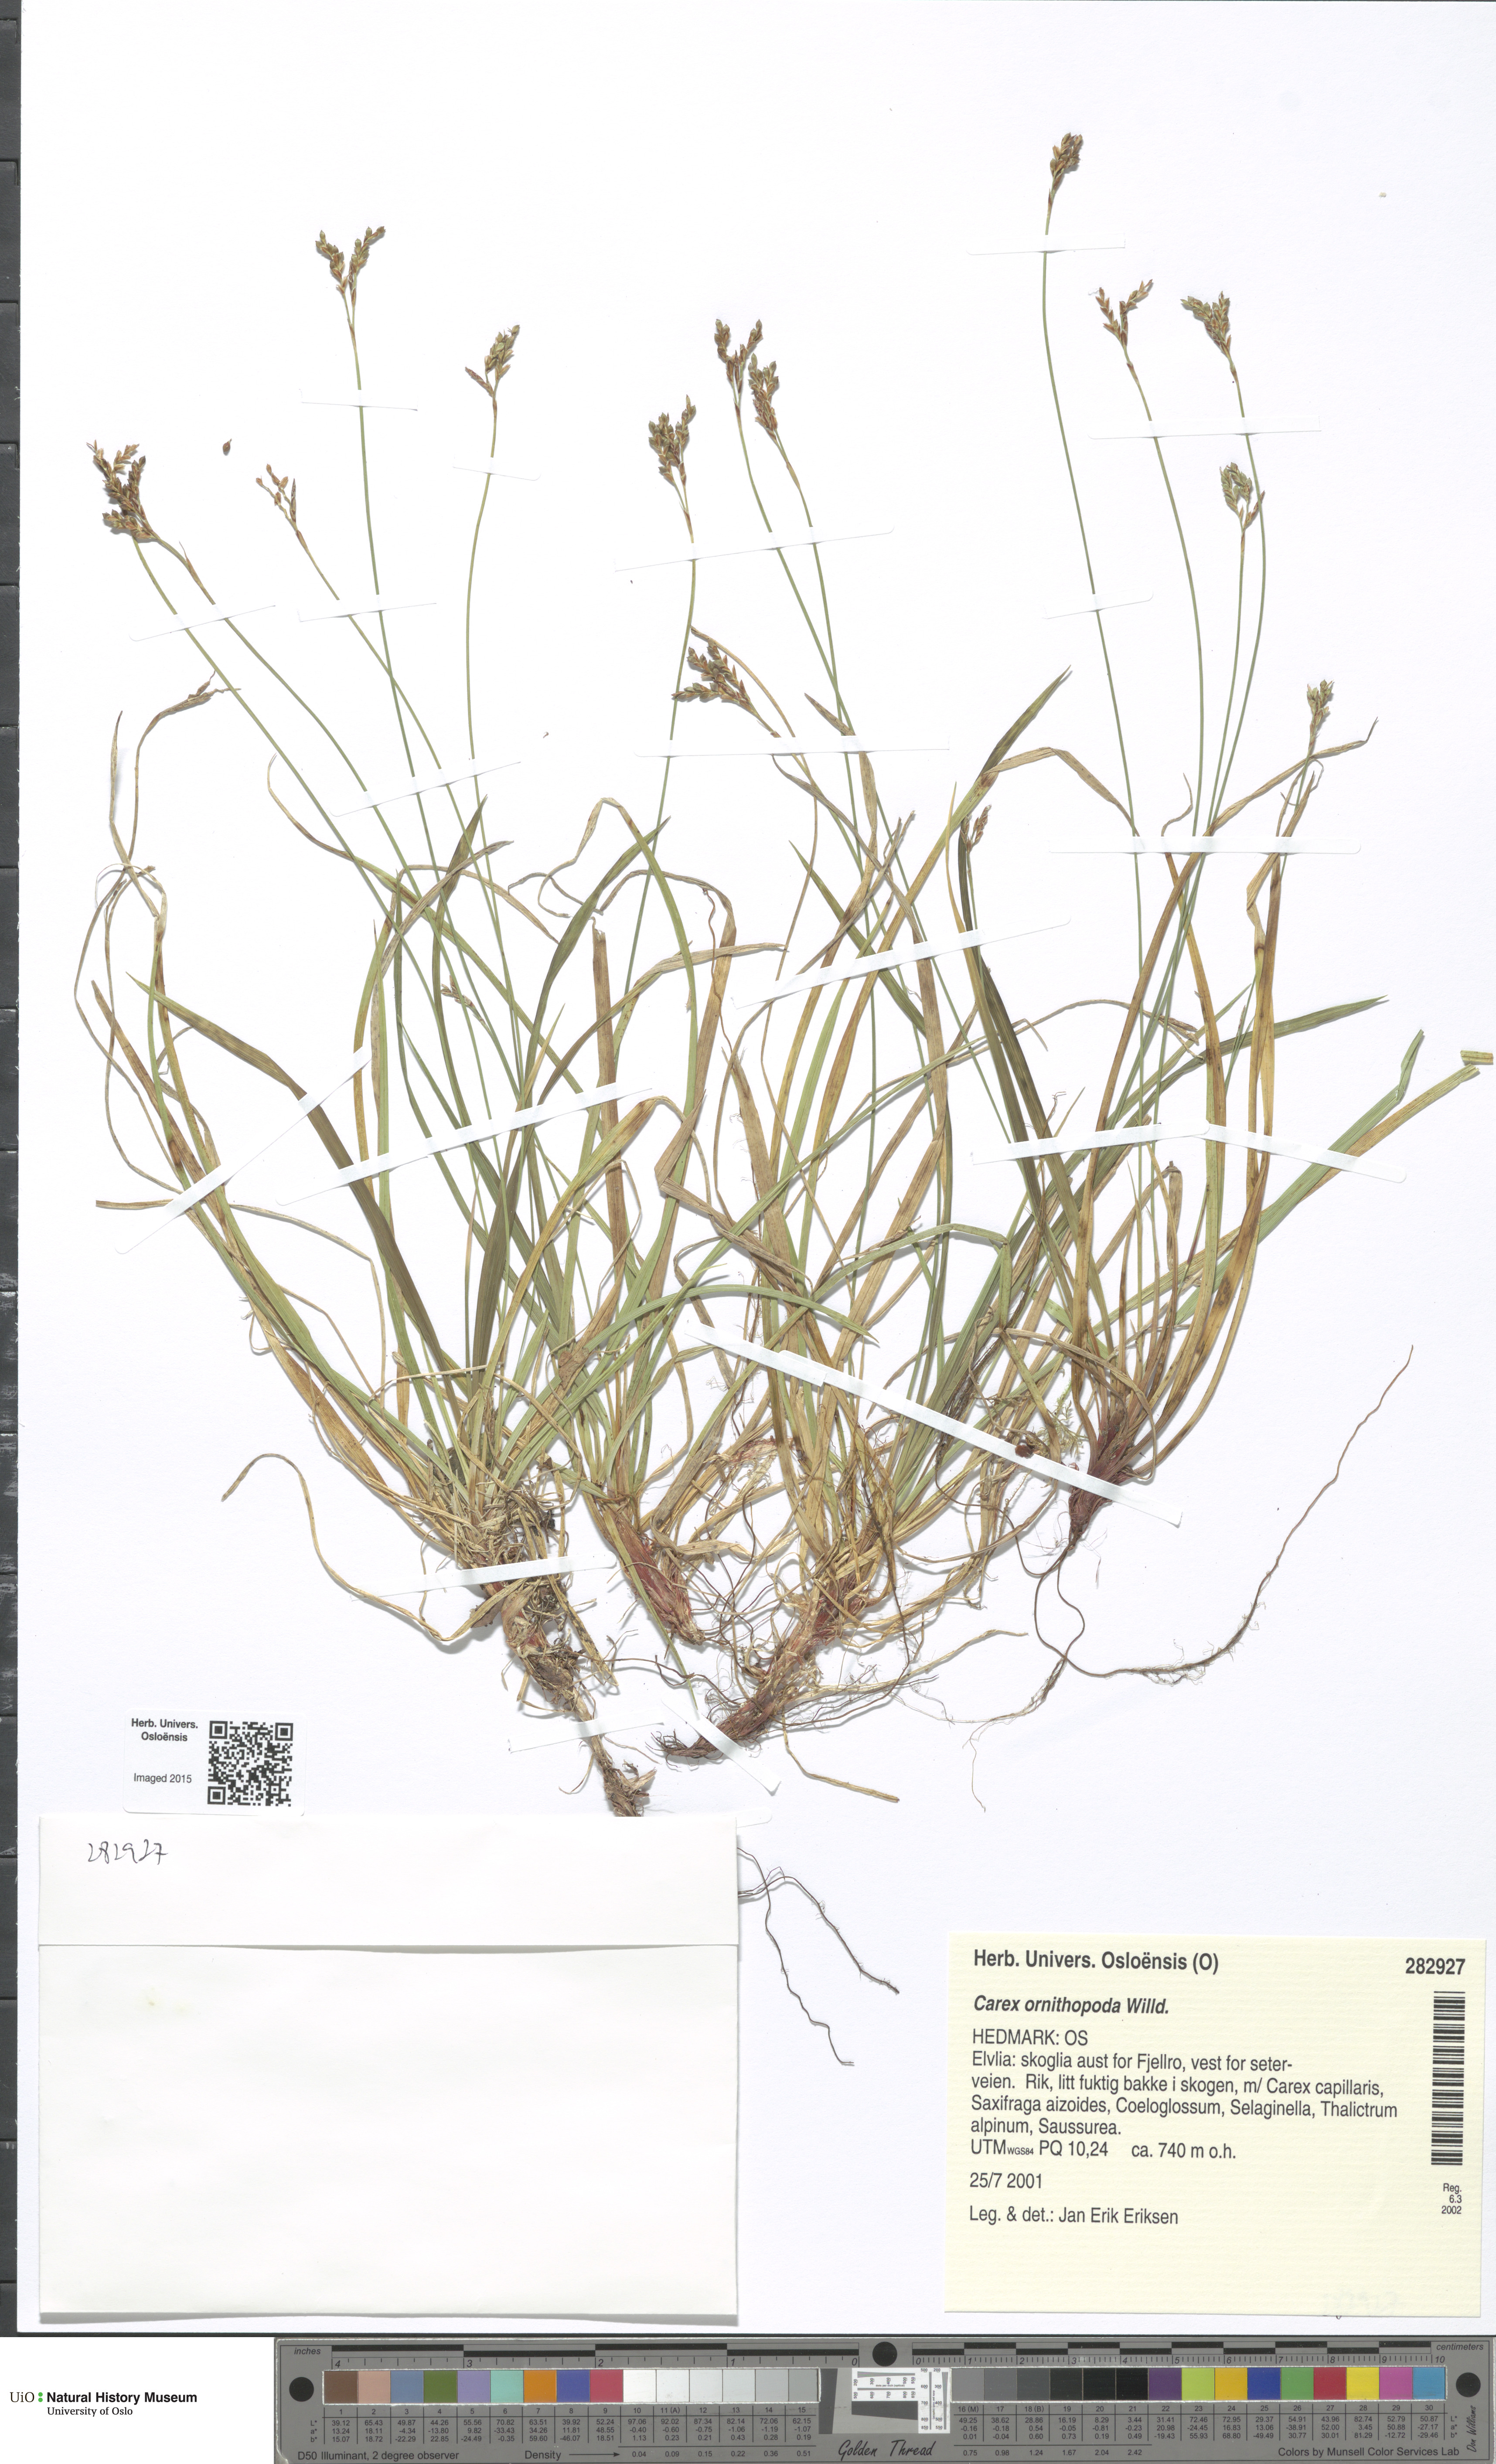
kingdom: Plantae
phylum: Tracheophyta
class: Liliopsida
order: Poales
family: Cyperaceae
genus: Carex
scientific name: Carex ornithopoda
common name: Bird's-foot sedge
